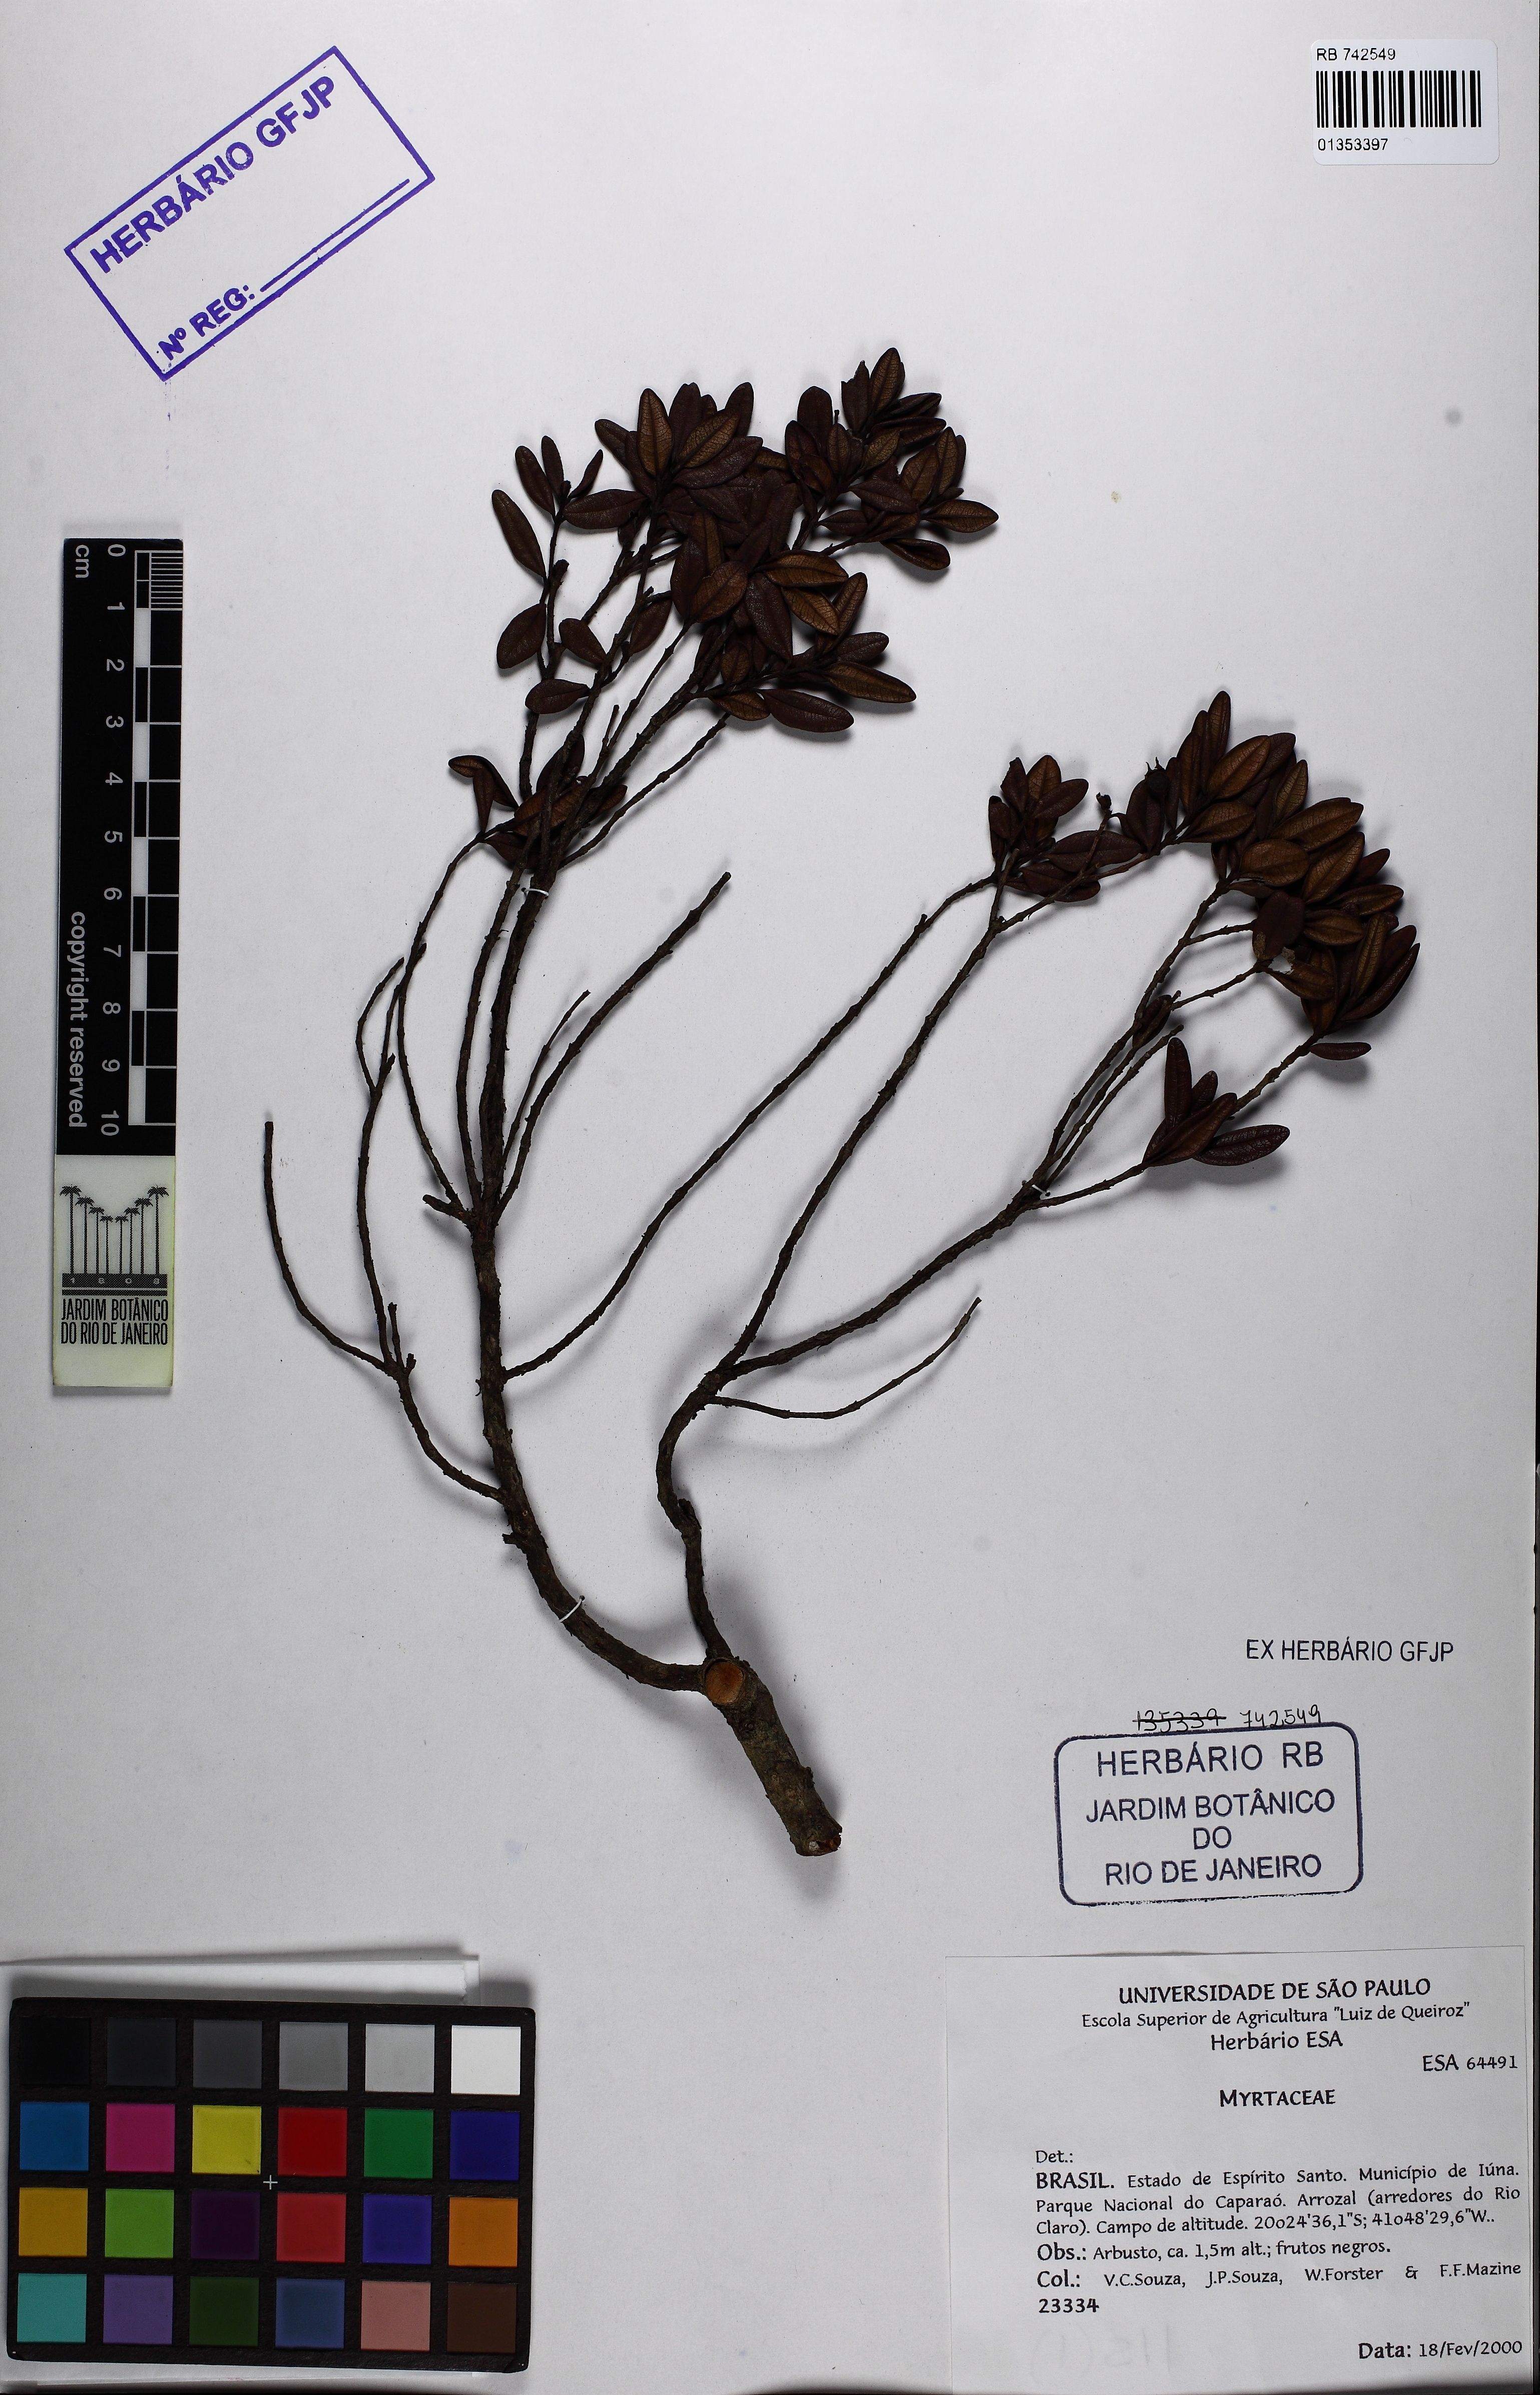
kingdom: Plantae
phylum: Tracheophyta
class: Magnoliopsida
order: Myrtales
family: Myrtaceae
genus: Myrcia
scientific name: Myrcia montana
